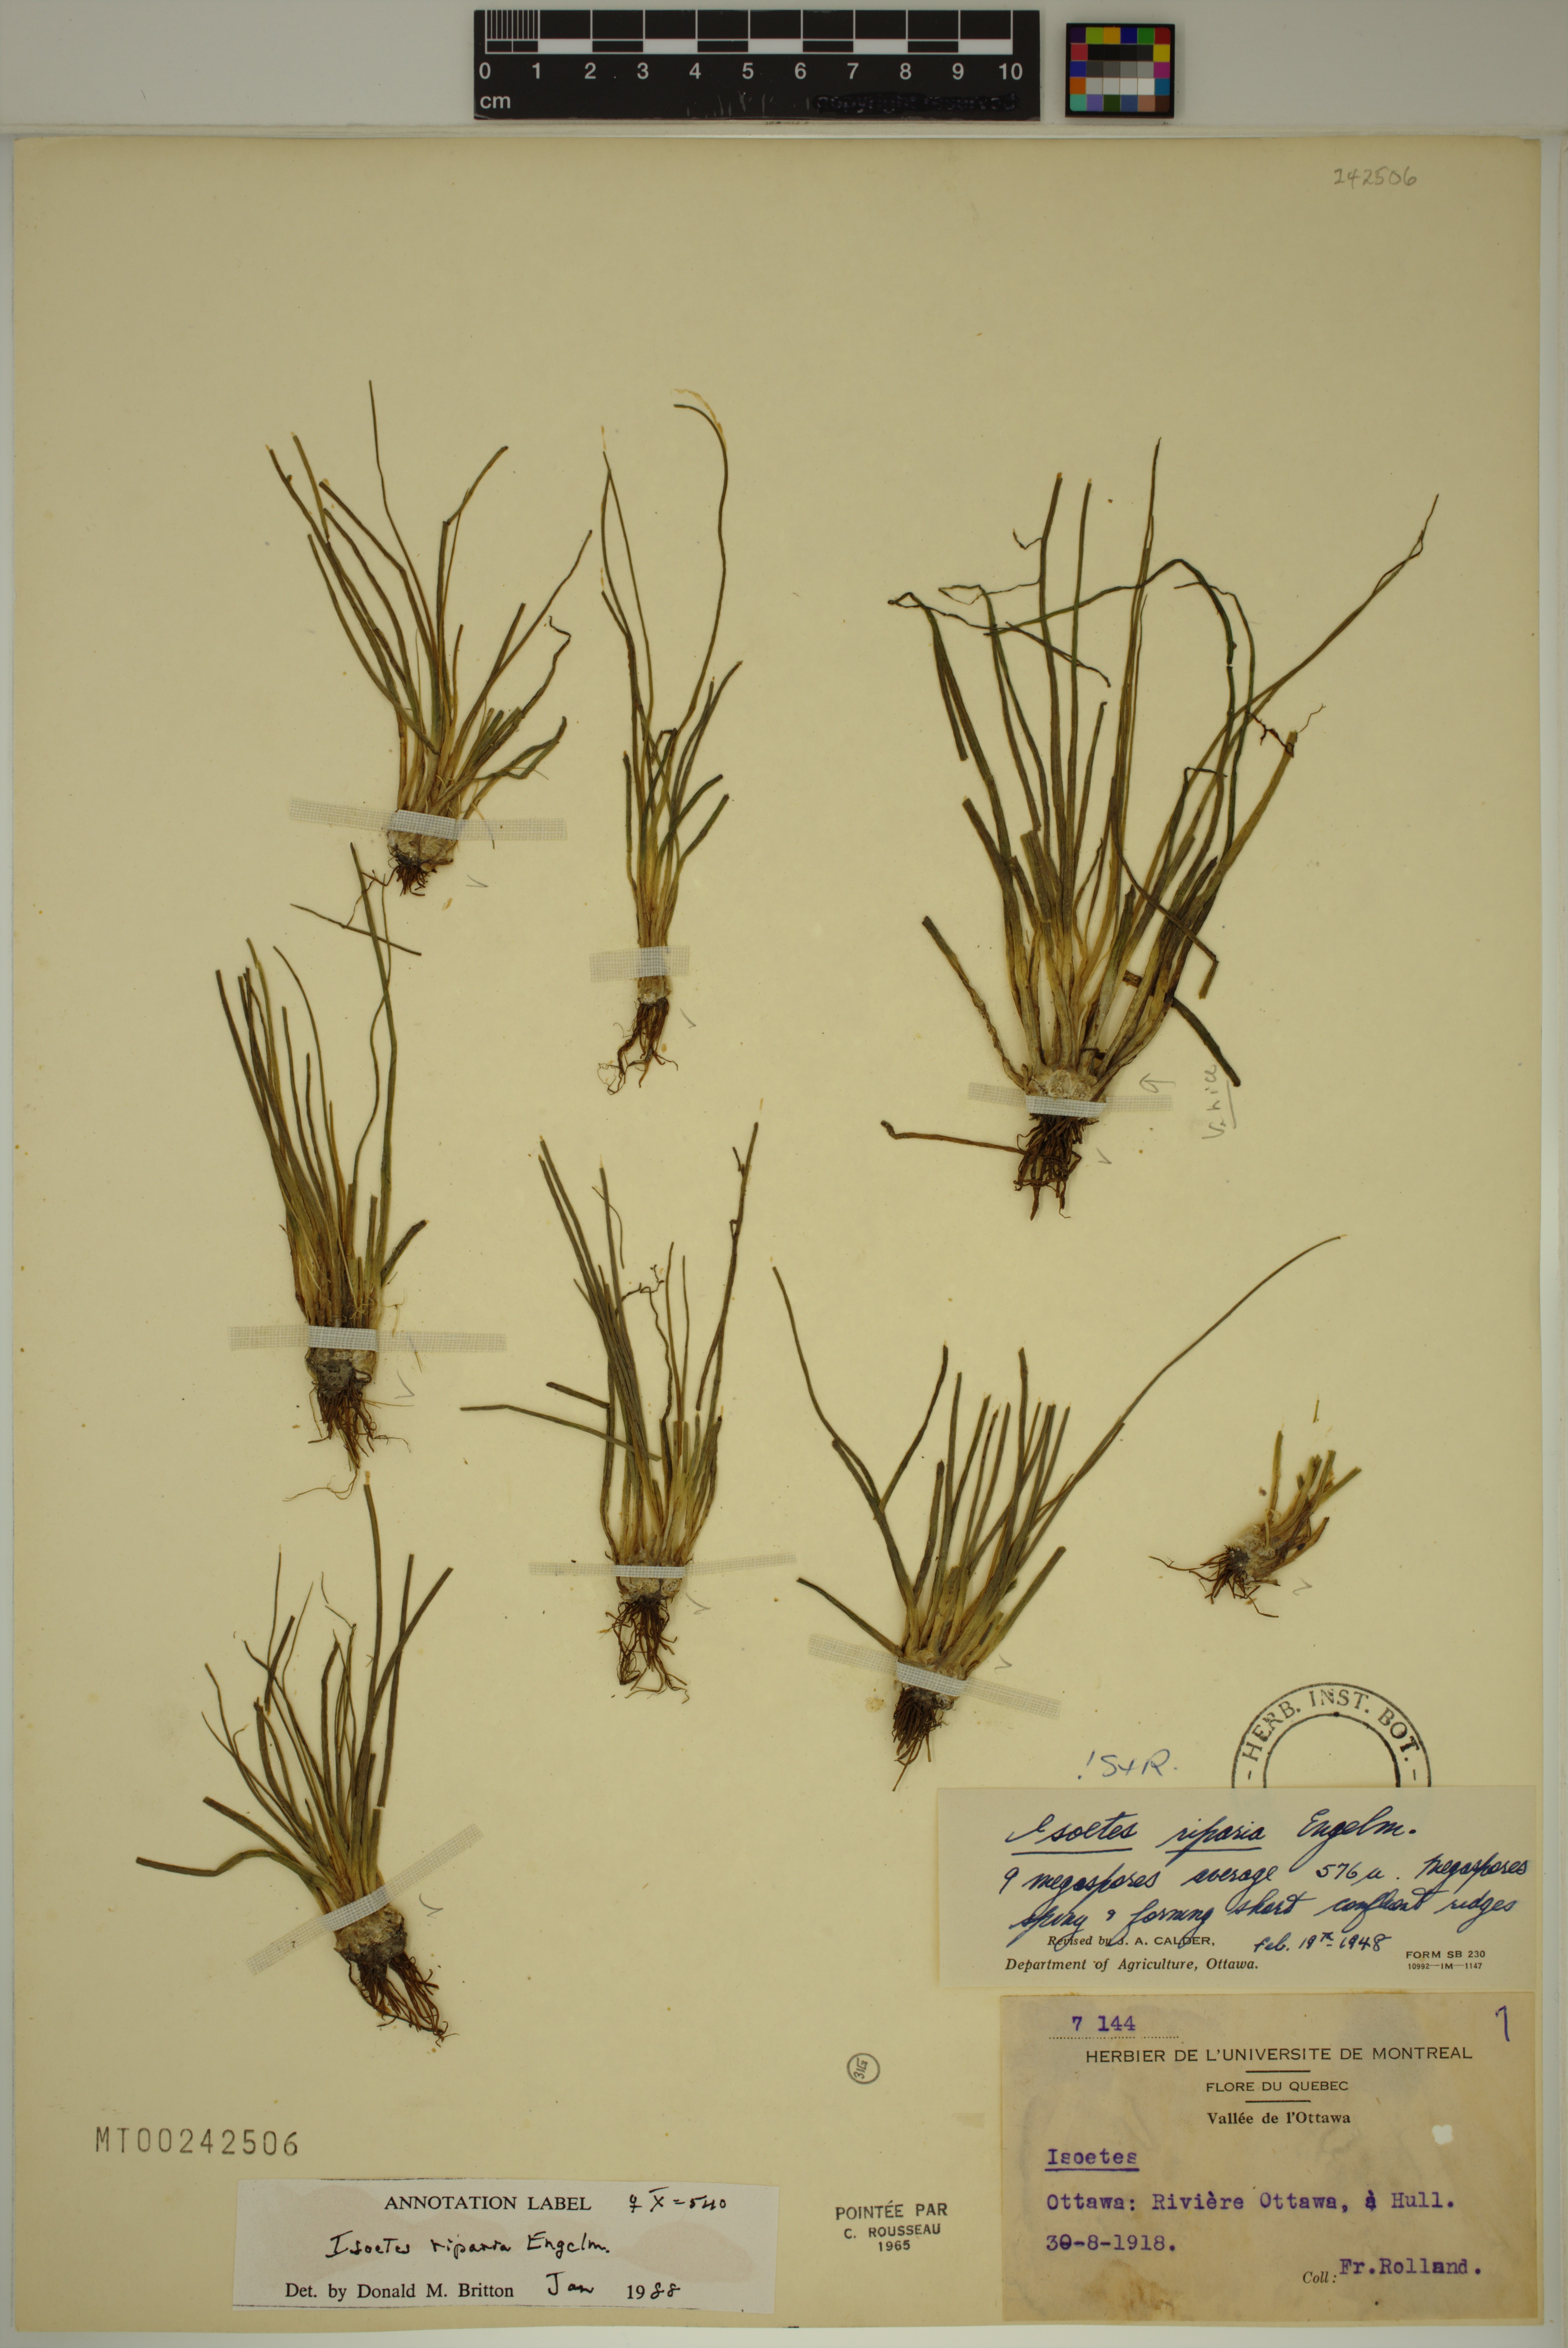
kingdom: Plantae
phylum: Tracheophyta
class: Lycopodiopsida
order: Isoetales
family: Isoetaceae
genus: Isoetes
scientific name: Isoetes septentrionalis
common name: Northern quillwort
